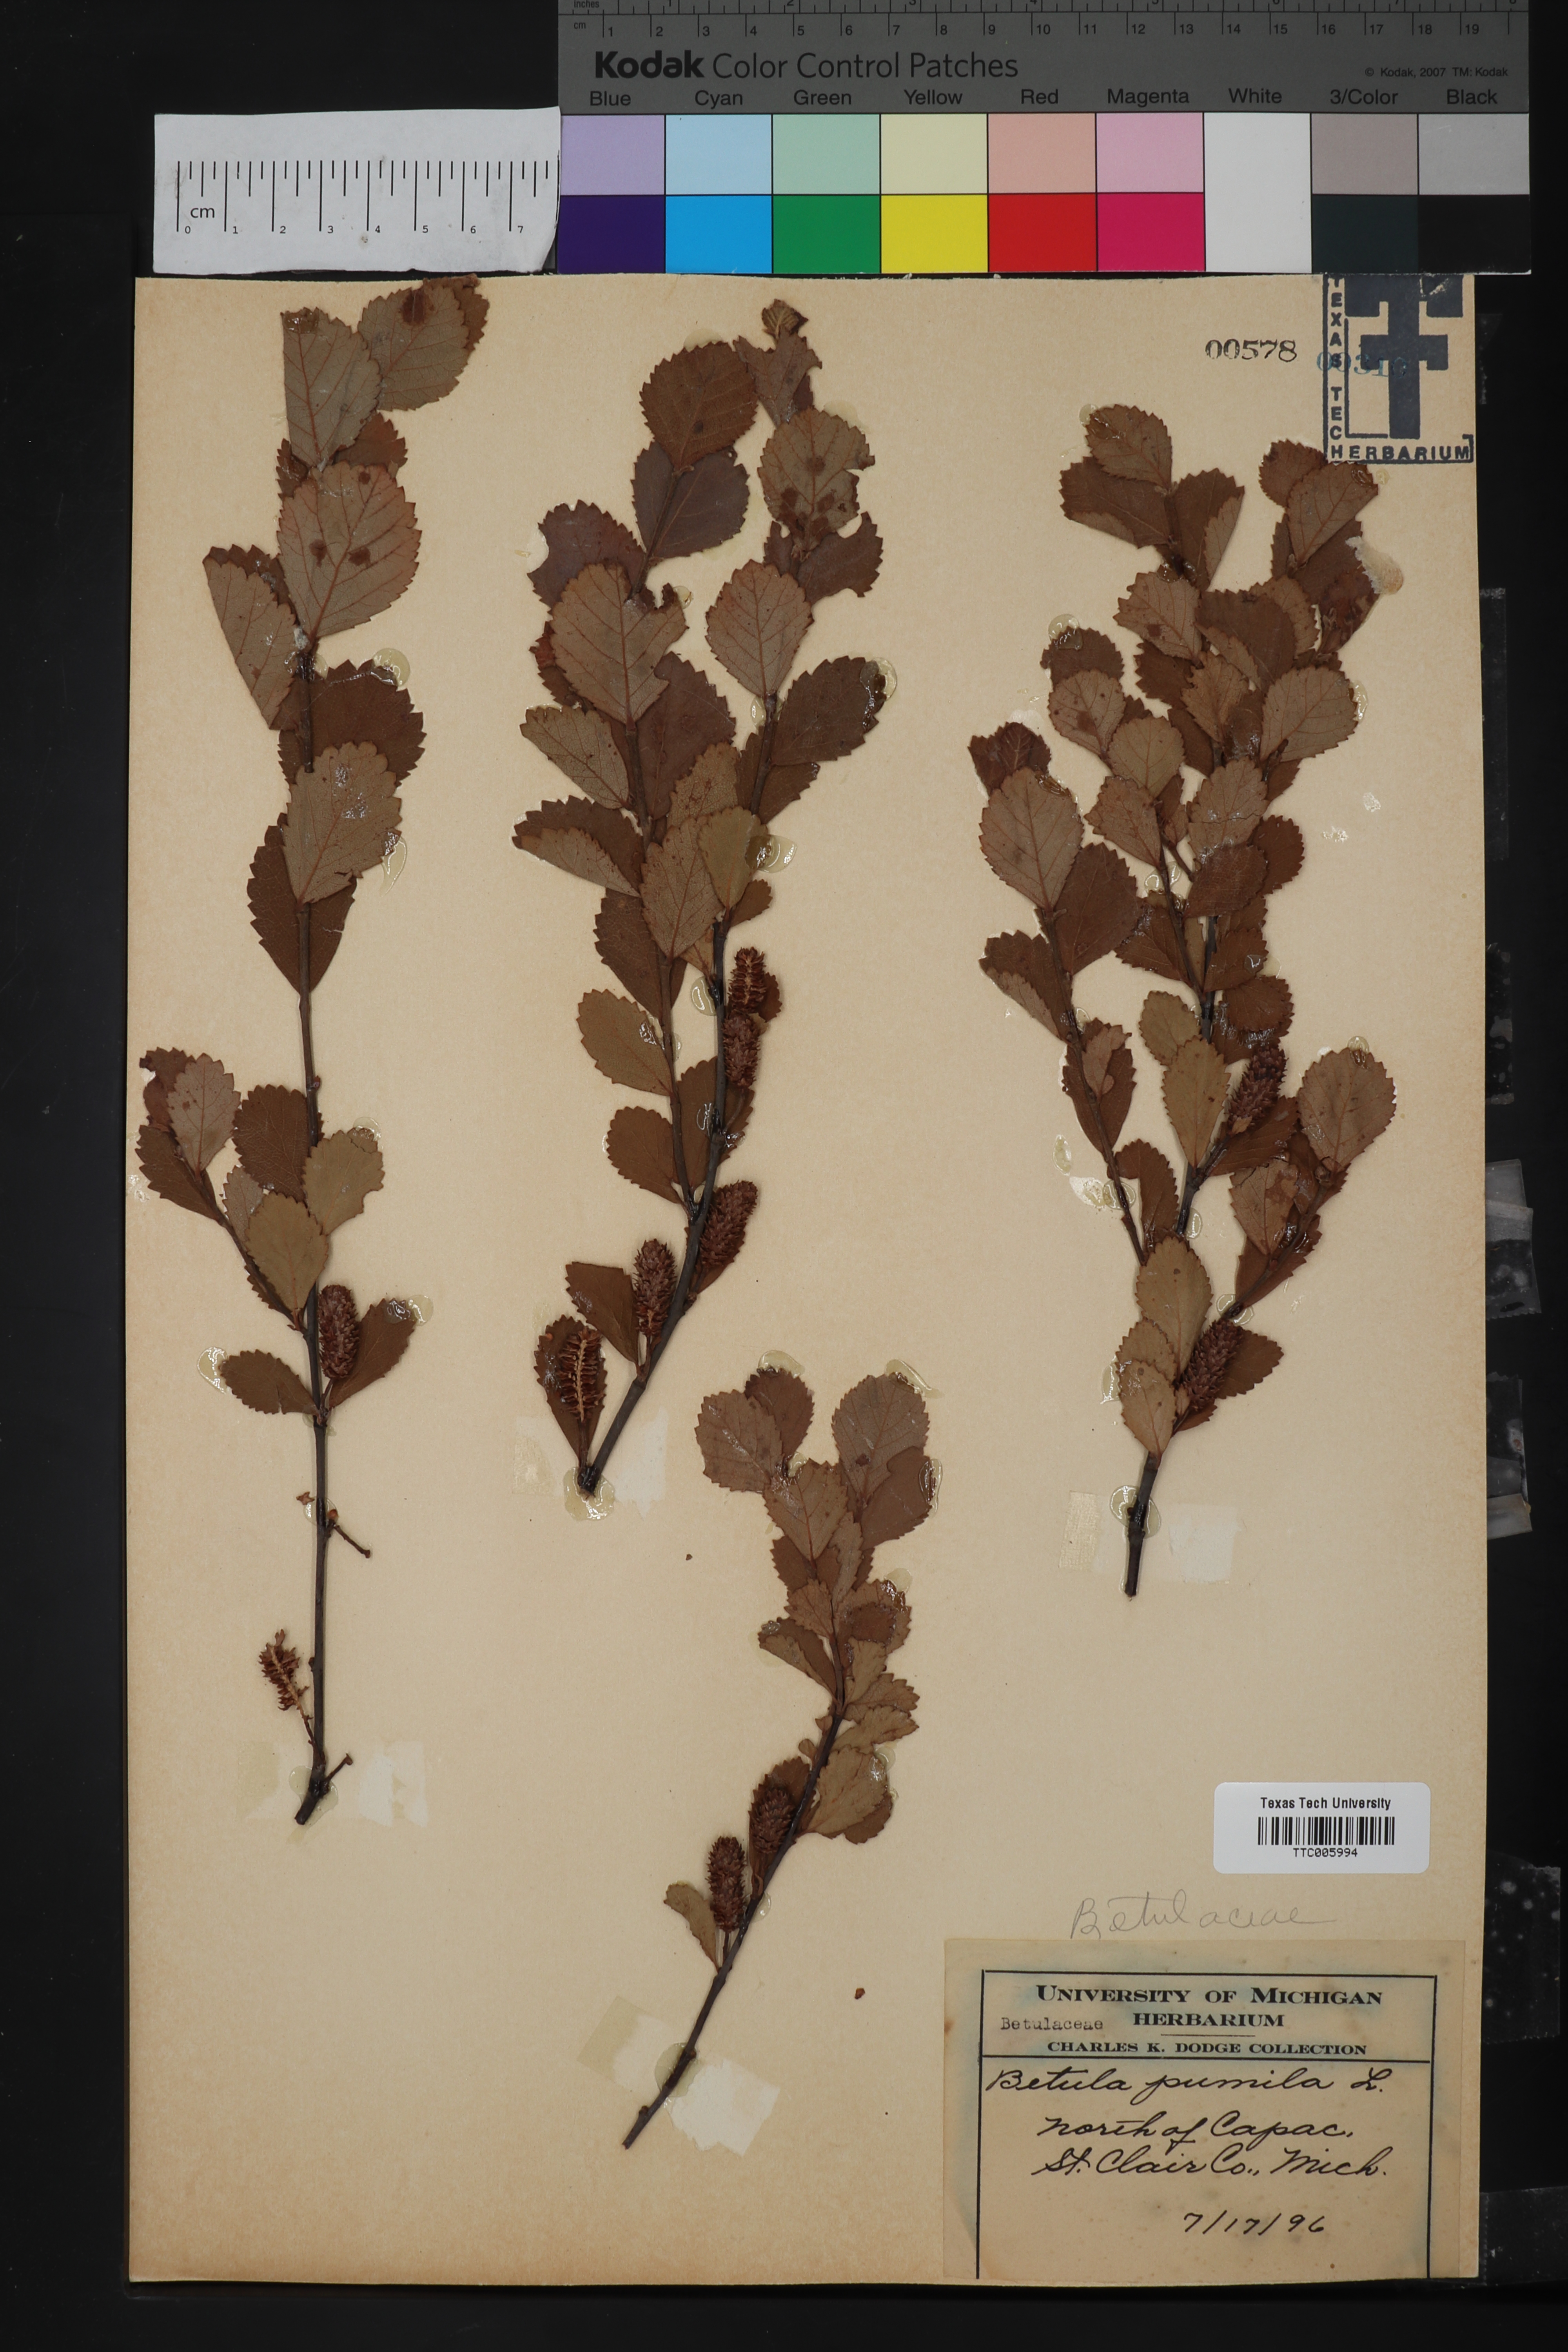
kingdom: Plantae
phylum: Tracheophyta
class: Magnoliopsida
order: Fagales
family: Betulaceae
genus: Betula
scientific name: Betula pumila
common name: Bog birch
